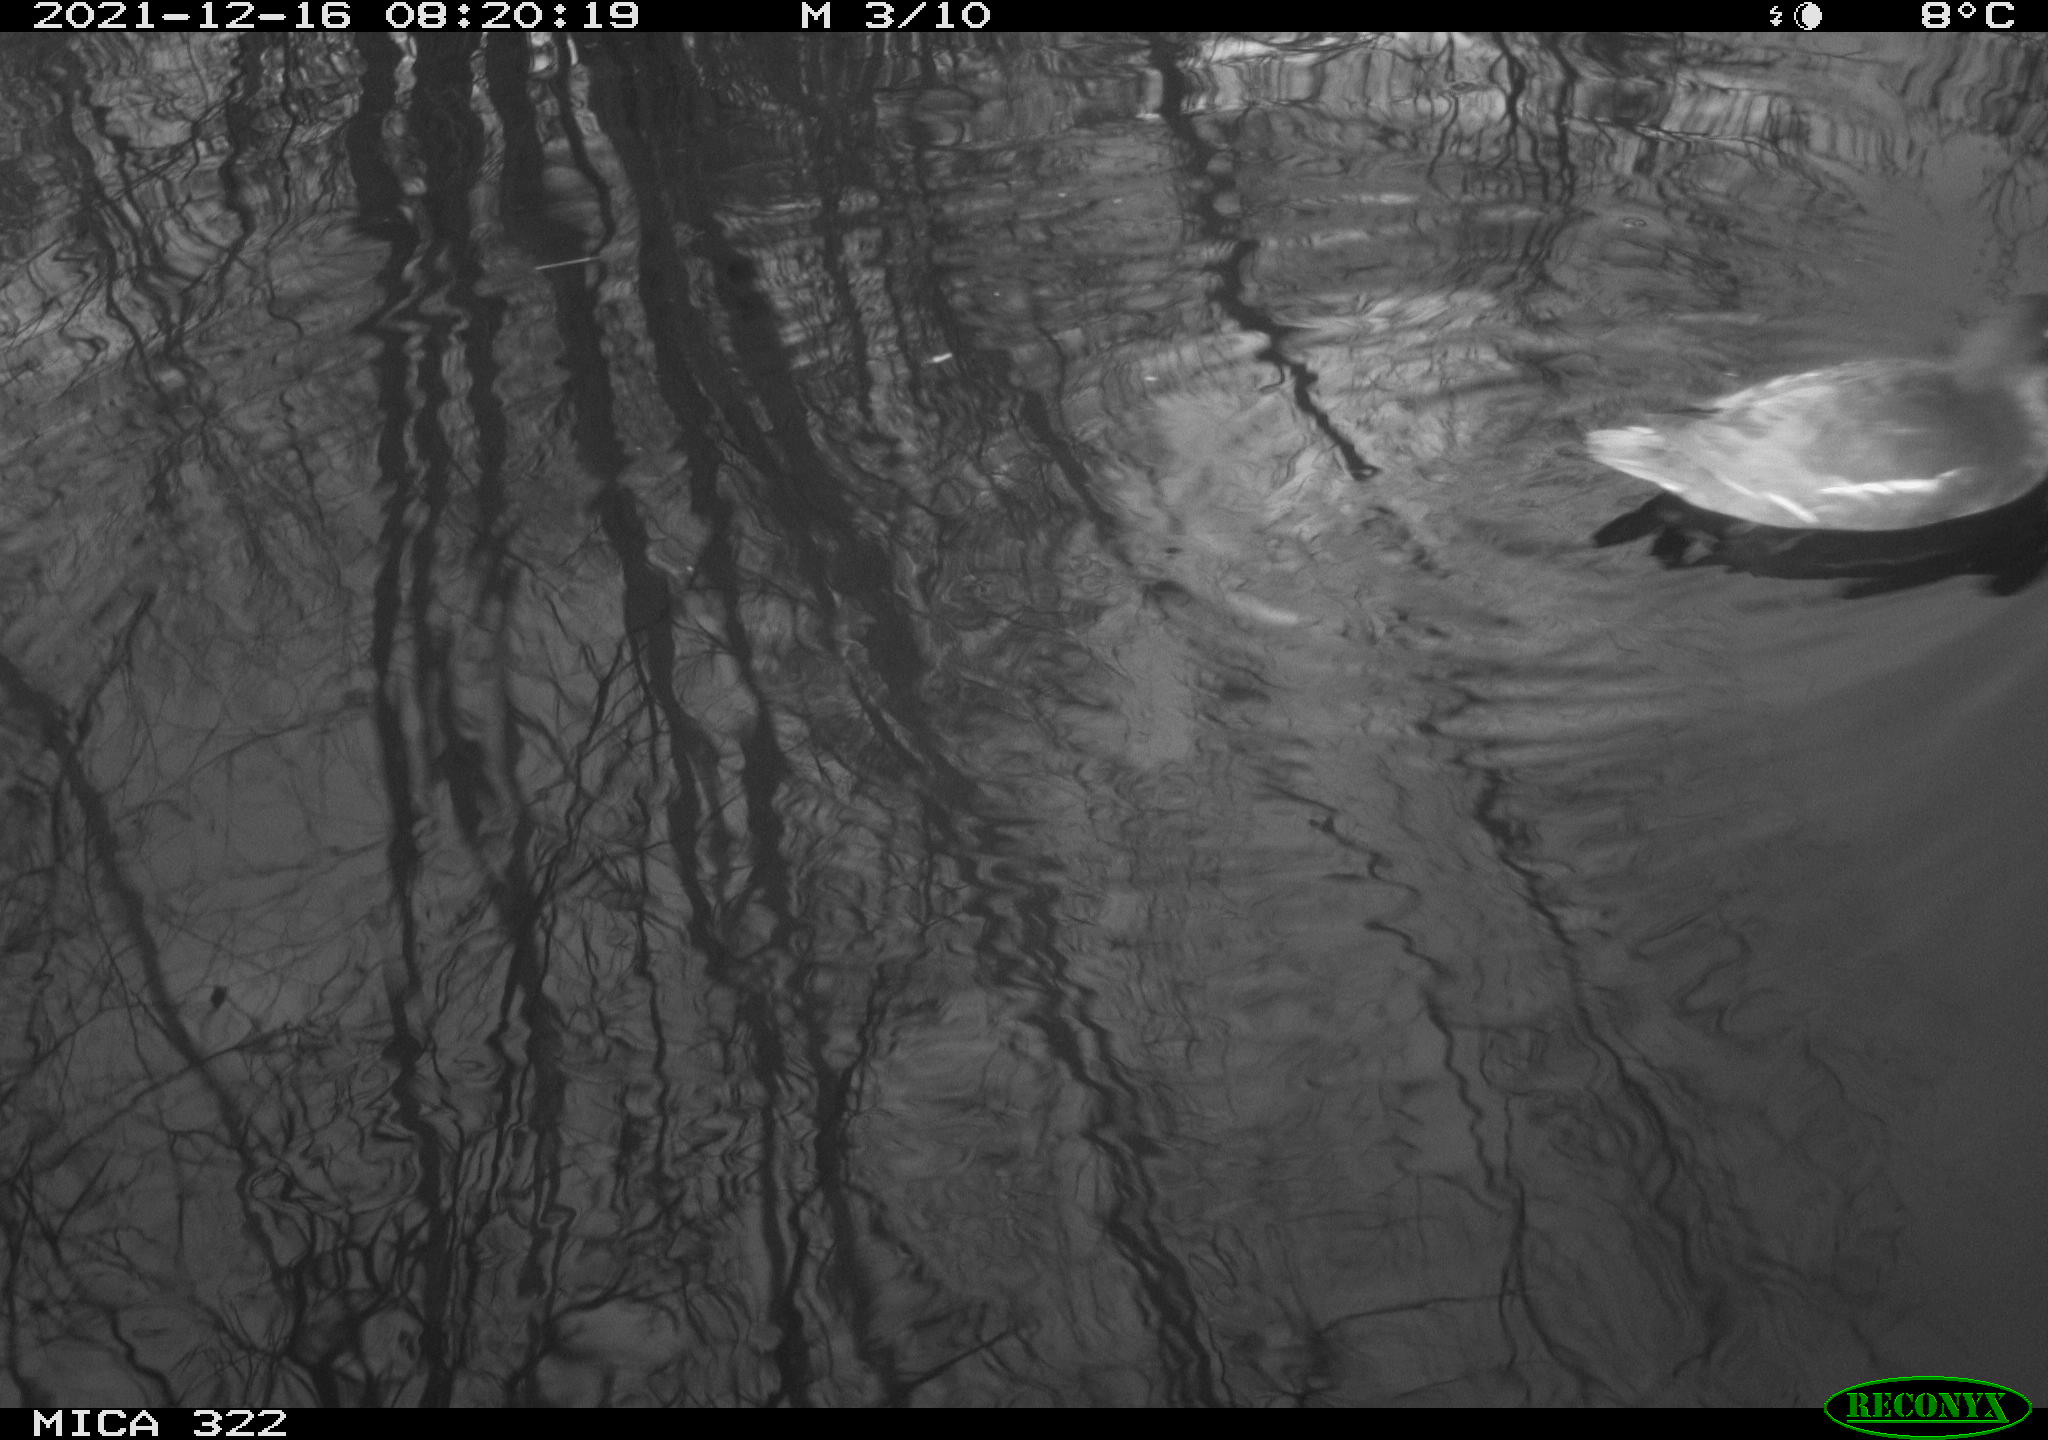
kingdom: Animalia
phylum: Chordata
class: Aves
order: Anseriformes
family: Anatidae
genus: Anas
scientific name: Anas
